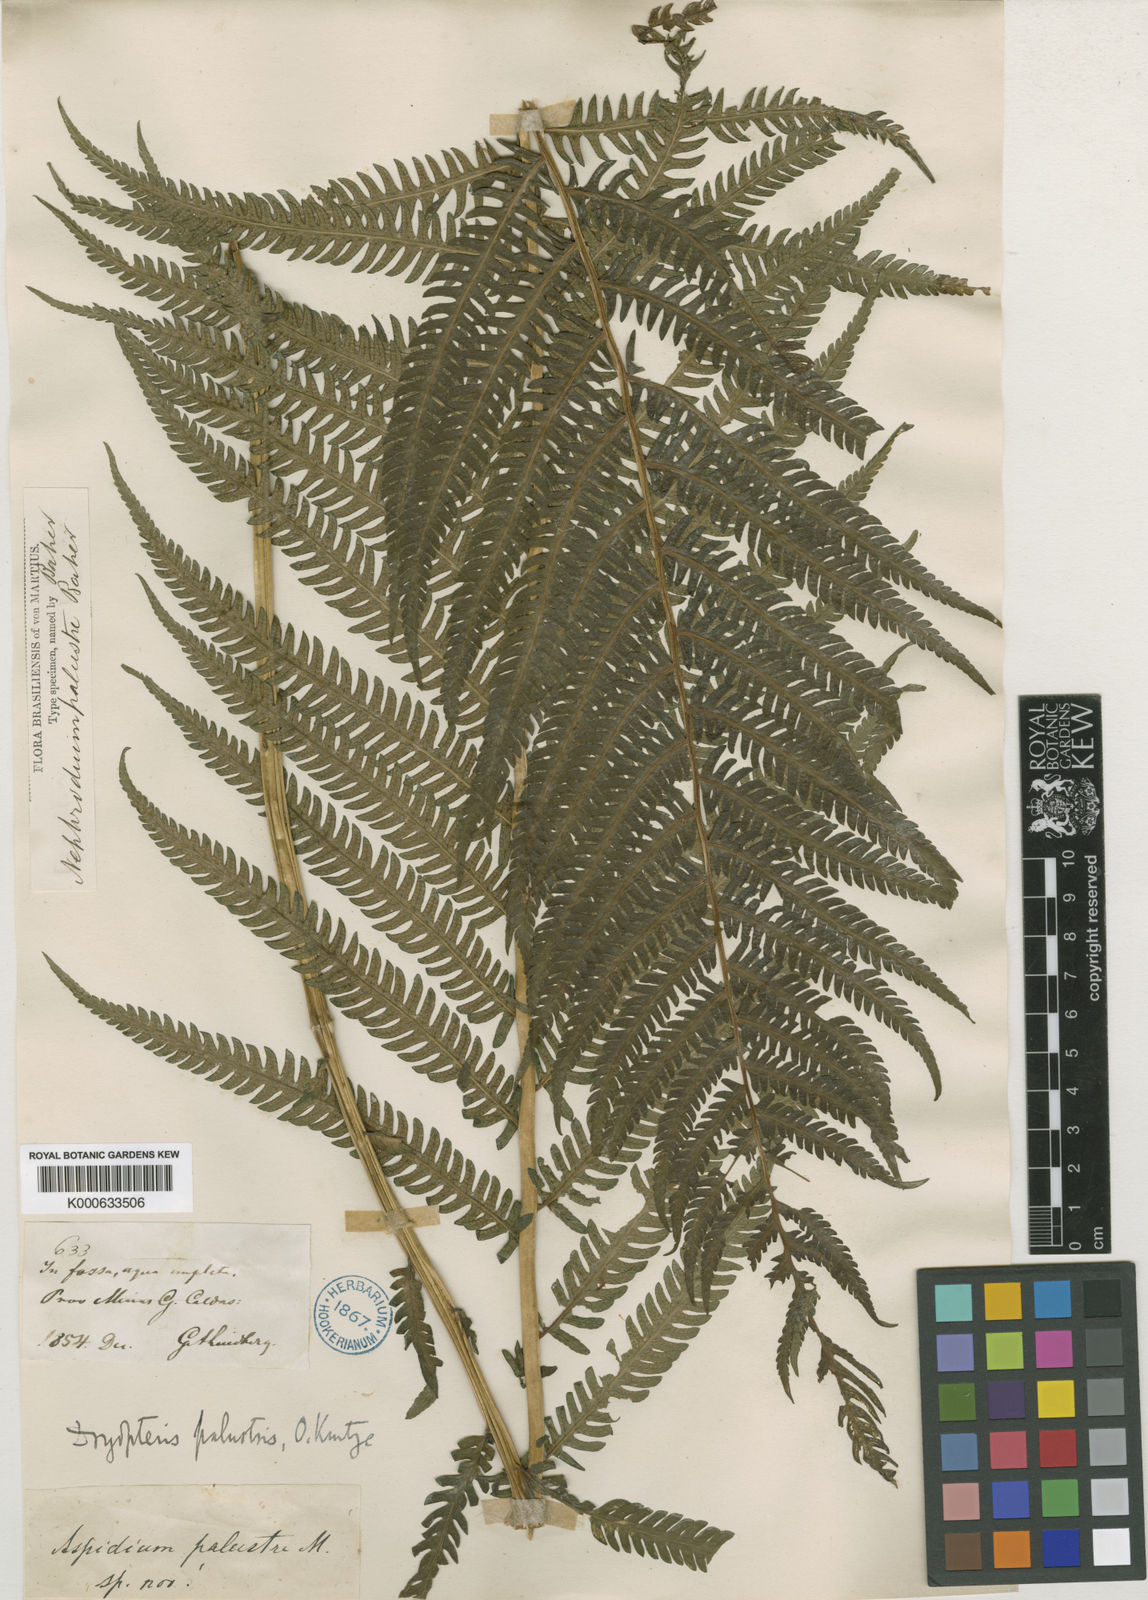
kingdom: Plantae
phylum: Tracheophyta
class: Polypodiopsida
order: Polypodiales
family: Thelypteridaceae
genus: Amauropelta
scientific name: Amauropelta metteniana
